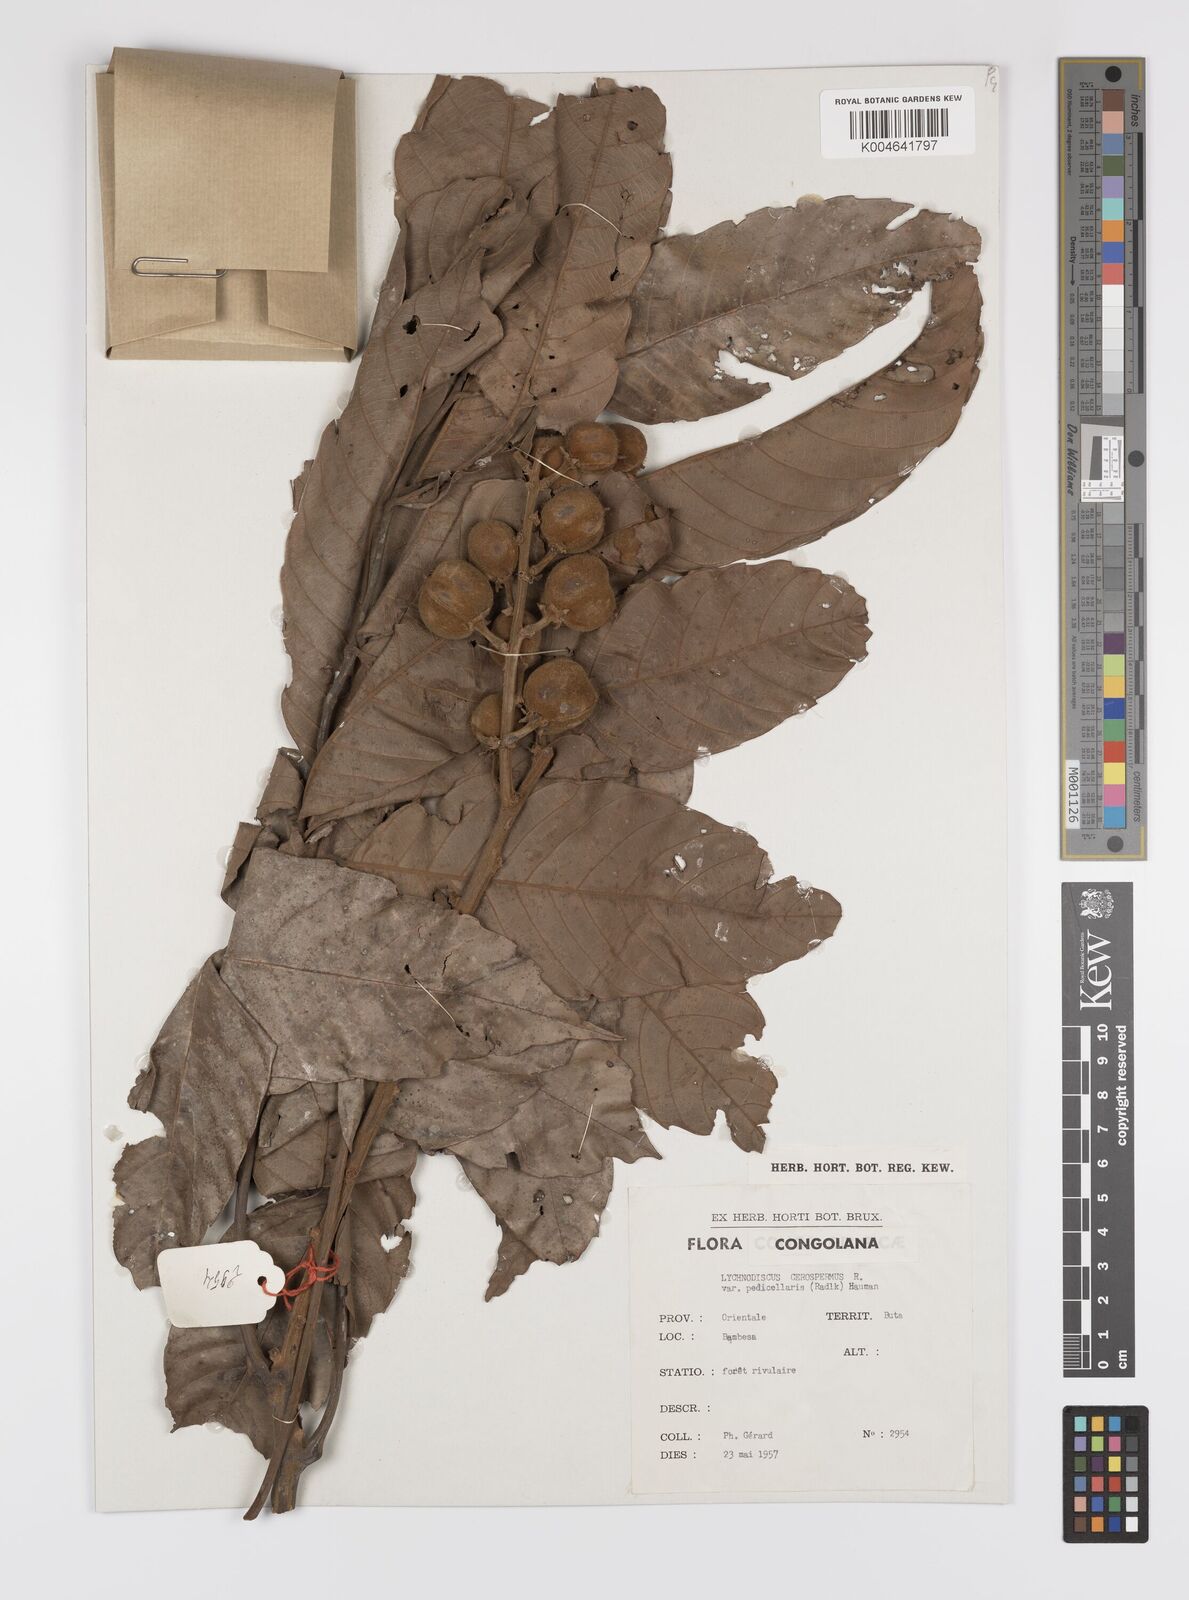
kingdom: Plantae
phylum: Tracheophyta
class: Magnoliopsida
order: Sapindales
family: Sapindaceae
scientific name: Sapindaceae
